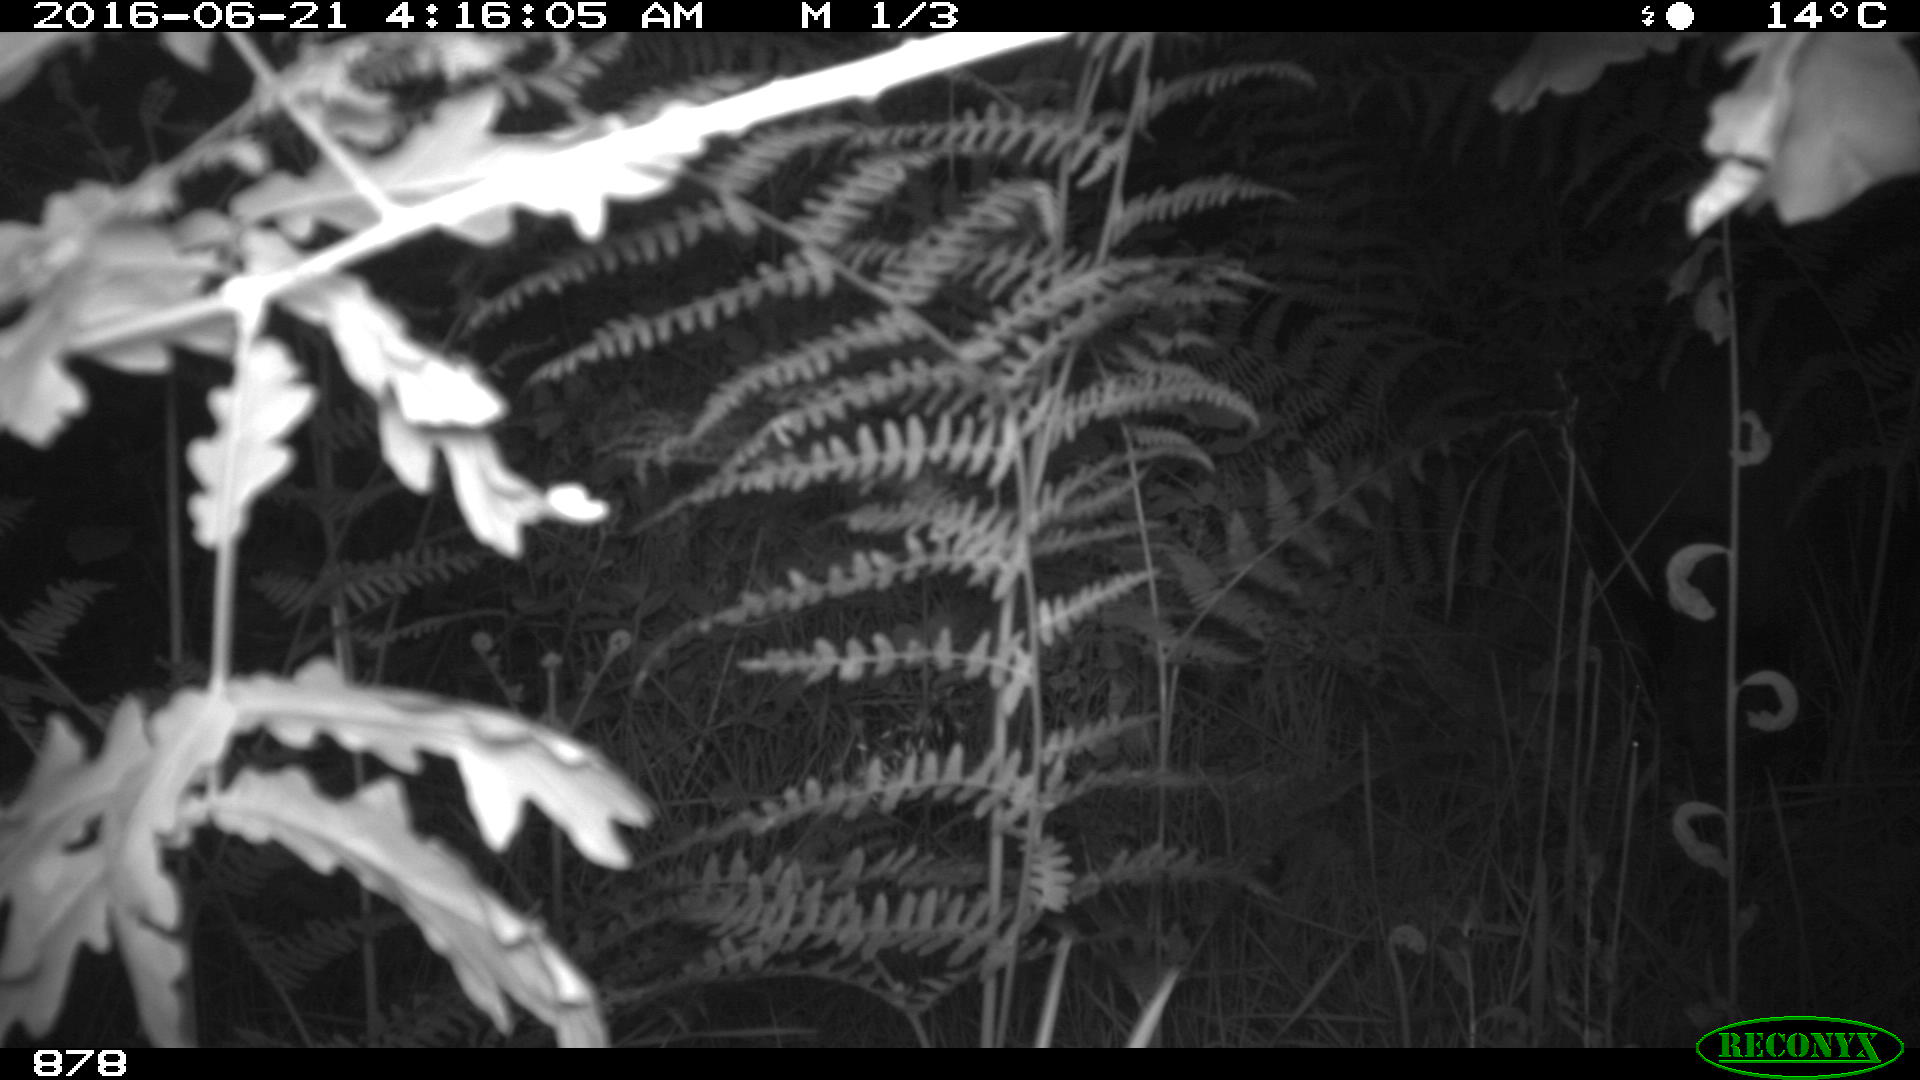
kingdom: Animalia
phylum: Chordata
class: Mammalia
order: Artiodactyla
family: Suidae
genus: Sus
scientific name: Sus scrofa
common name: Wild boar
